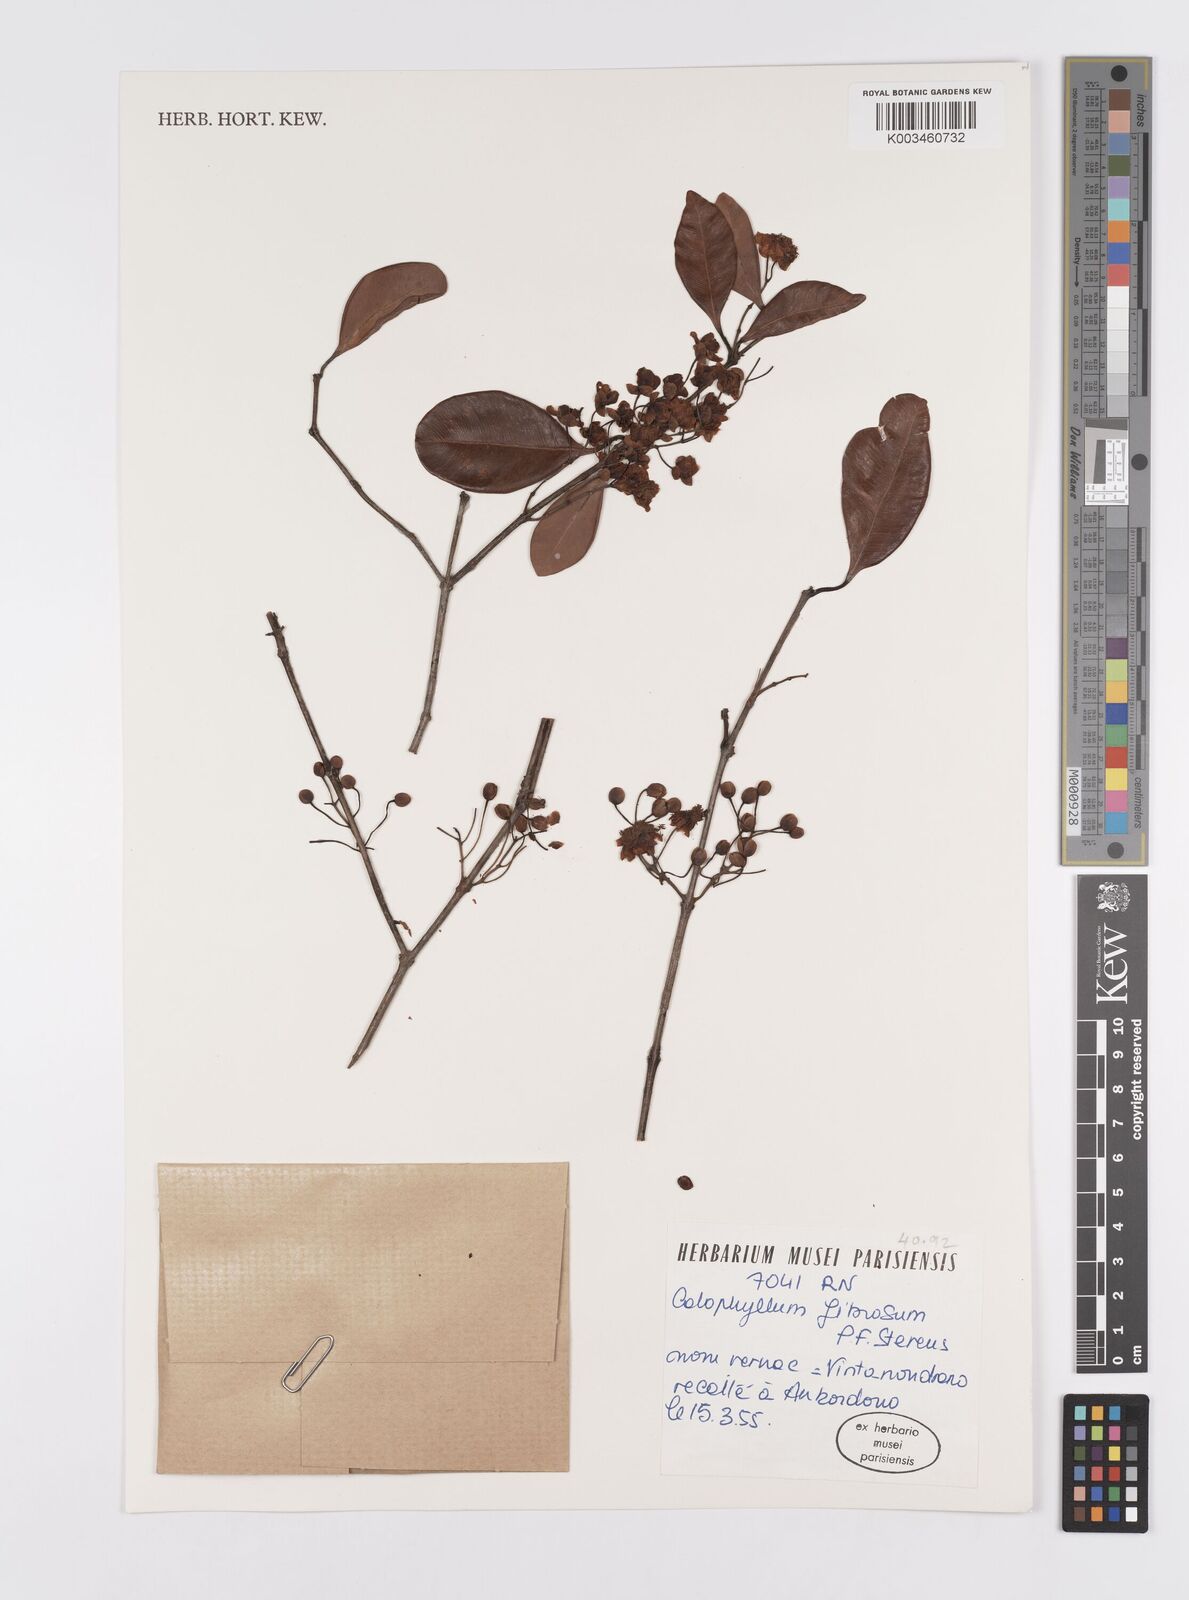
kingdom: Plantae
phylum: Tracheophyta
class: Magnoliopsida
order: Malpighiales
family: Calophyllaceae
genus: Calophyllum
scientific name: Calophyllum fibrosum
